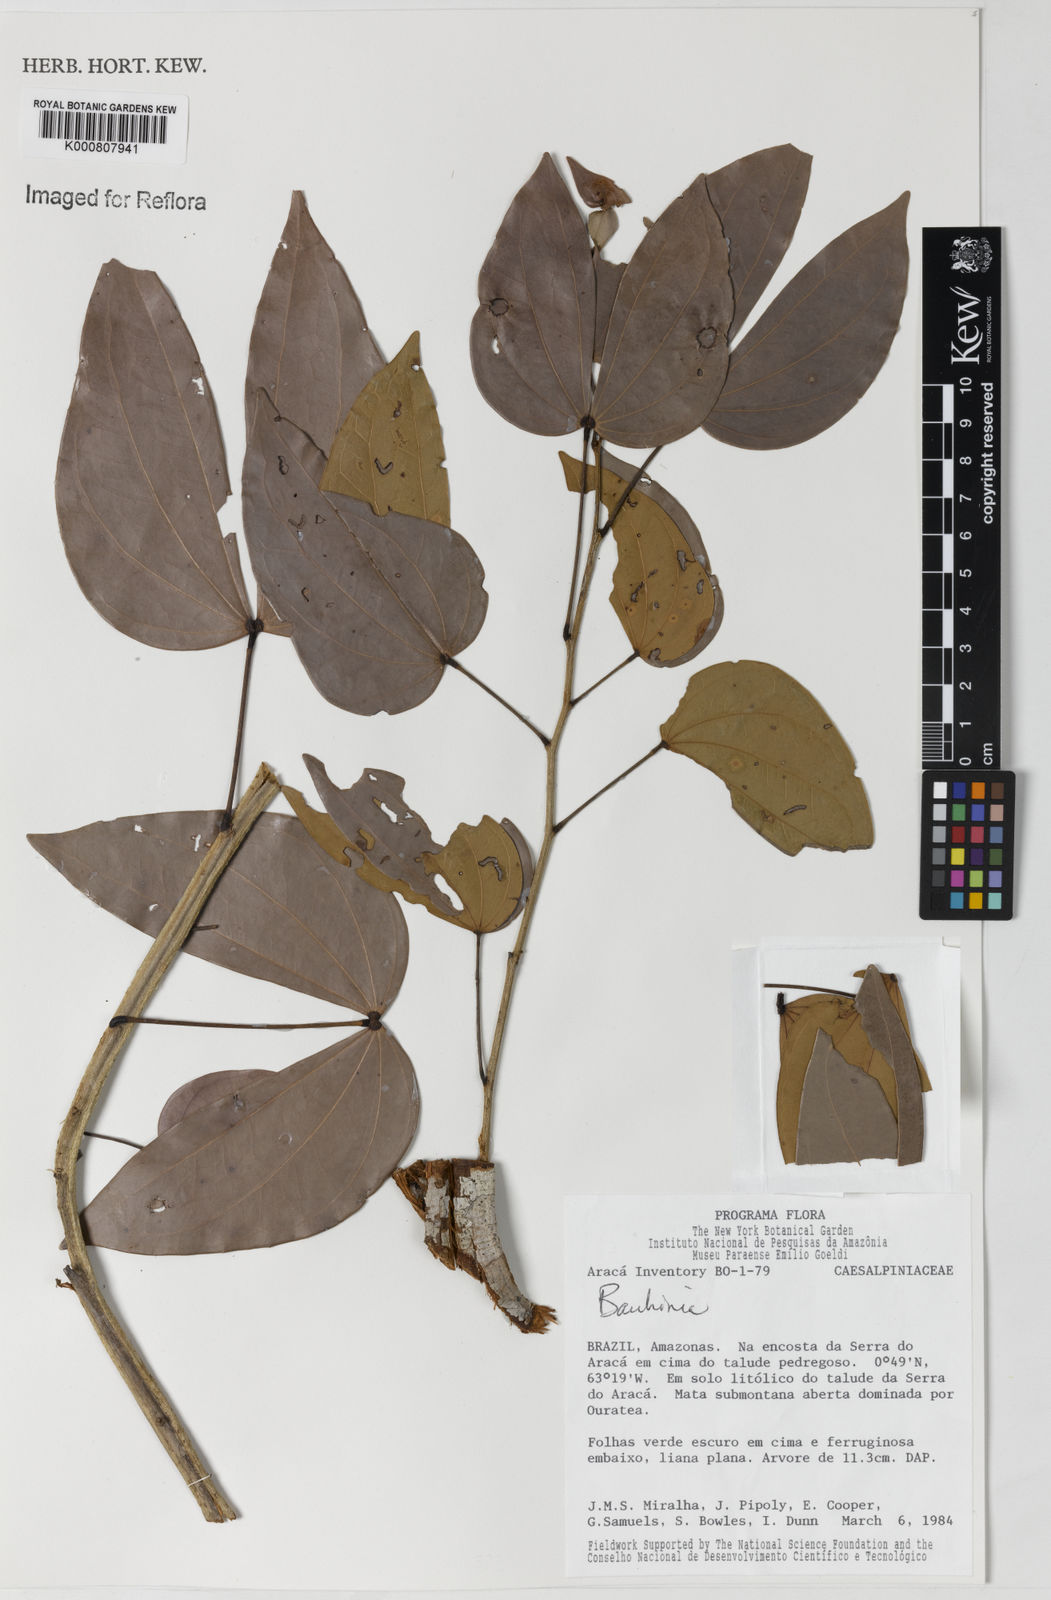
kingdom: Plantae
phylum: Tracheophyta
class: Magnoliopsida
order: Fabales
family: Fabaceae
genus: Schnella
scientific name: Schnella splendens
